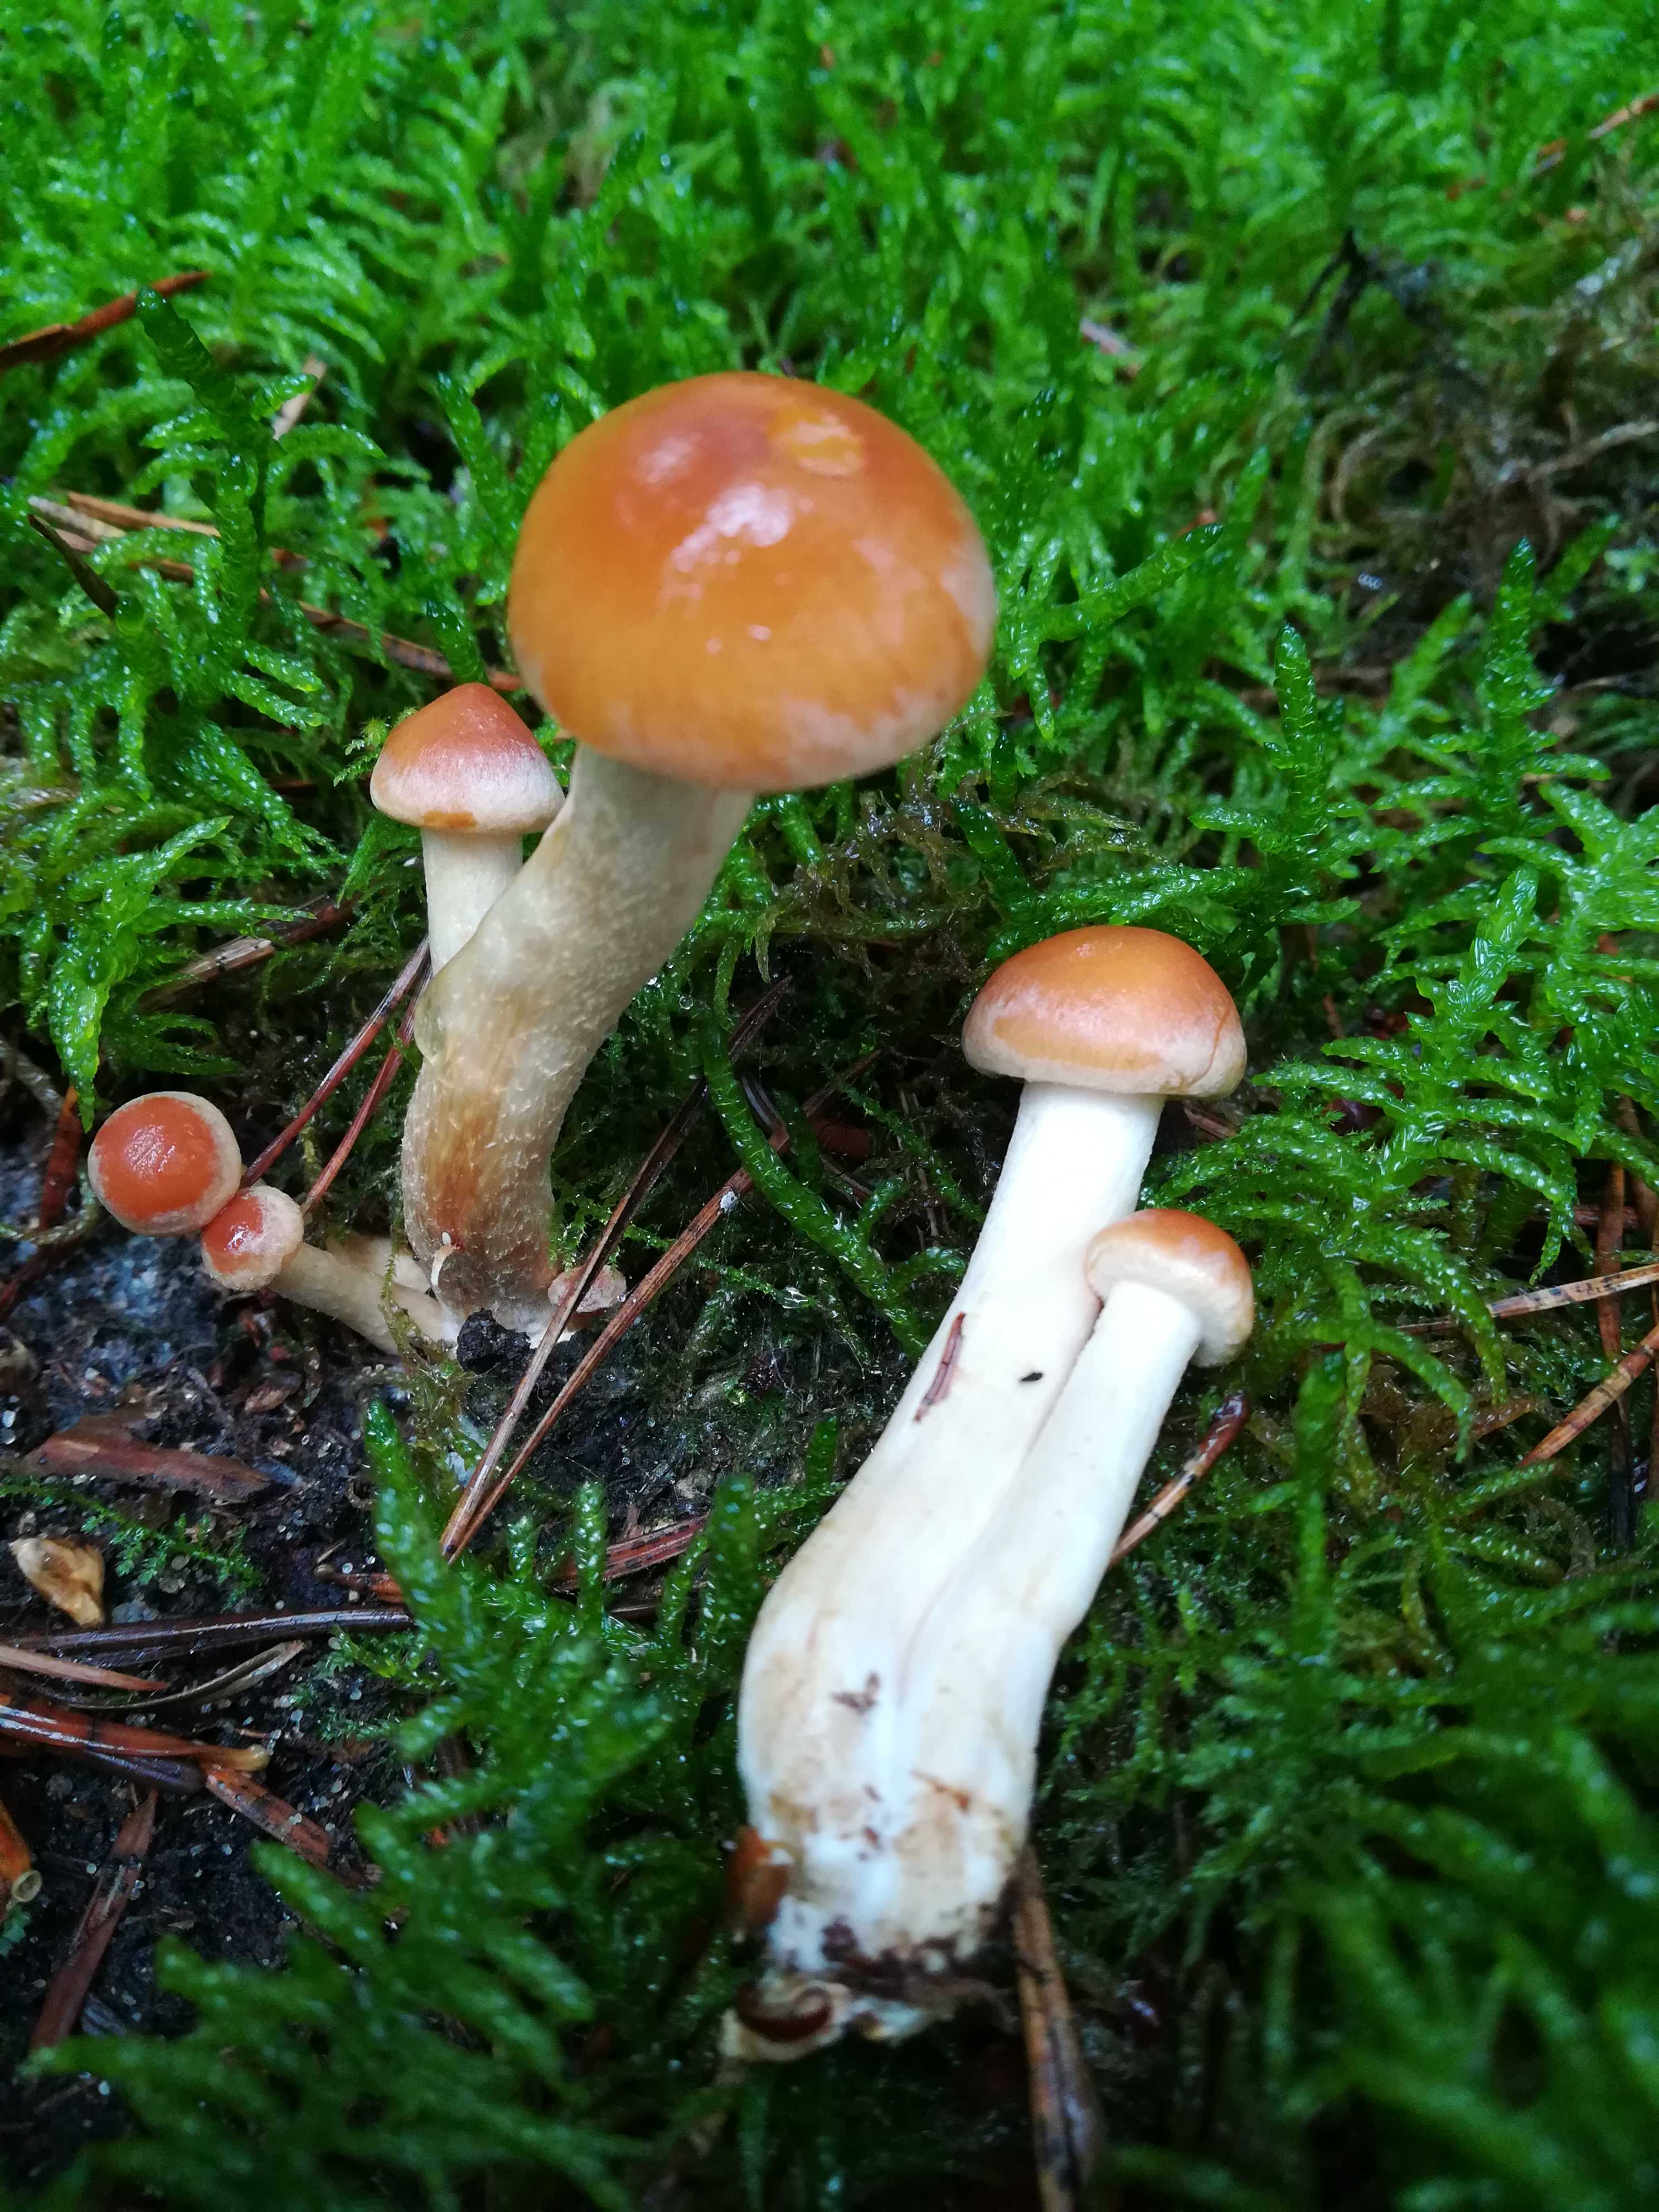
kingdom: Fungi
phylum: Basidiomycota
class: Agaricomycetes
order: Agaricales
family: Strophariaceae
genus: Hypholoma
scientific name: Hypholoma
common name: svovlhat
